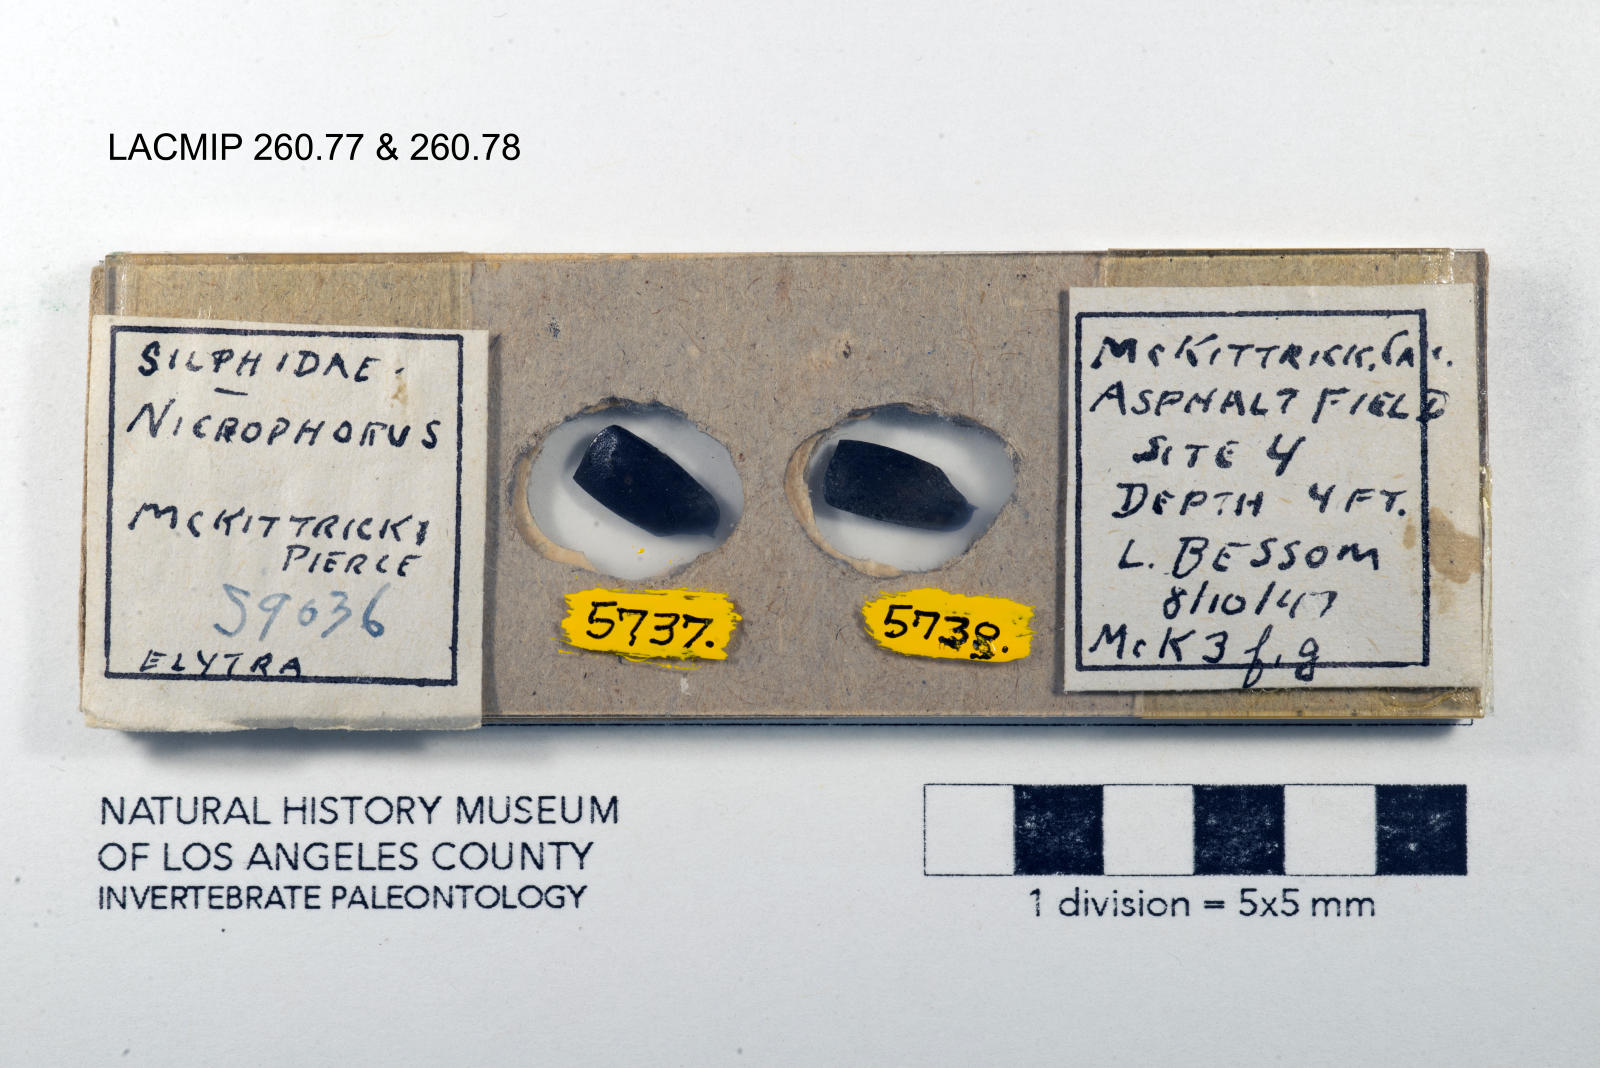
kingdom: Animalia
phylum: Arthropoda
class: Insecta
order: Coleoptera
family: Staphylinidae
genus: Nicrophorus
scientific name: Nicrophorus marginatus
